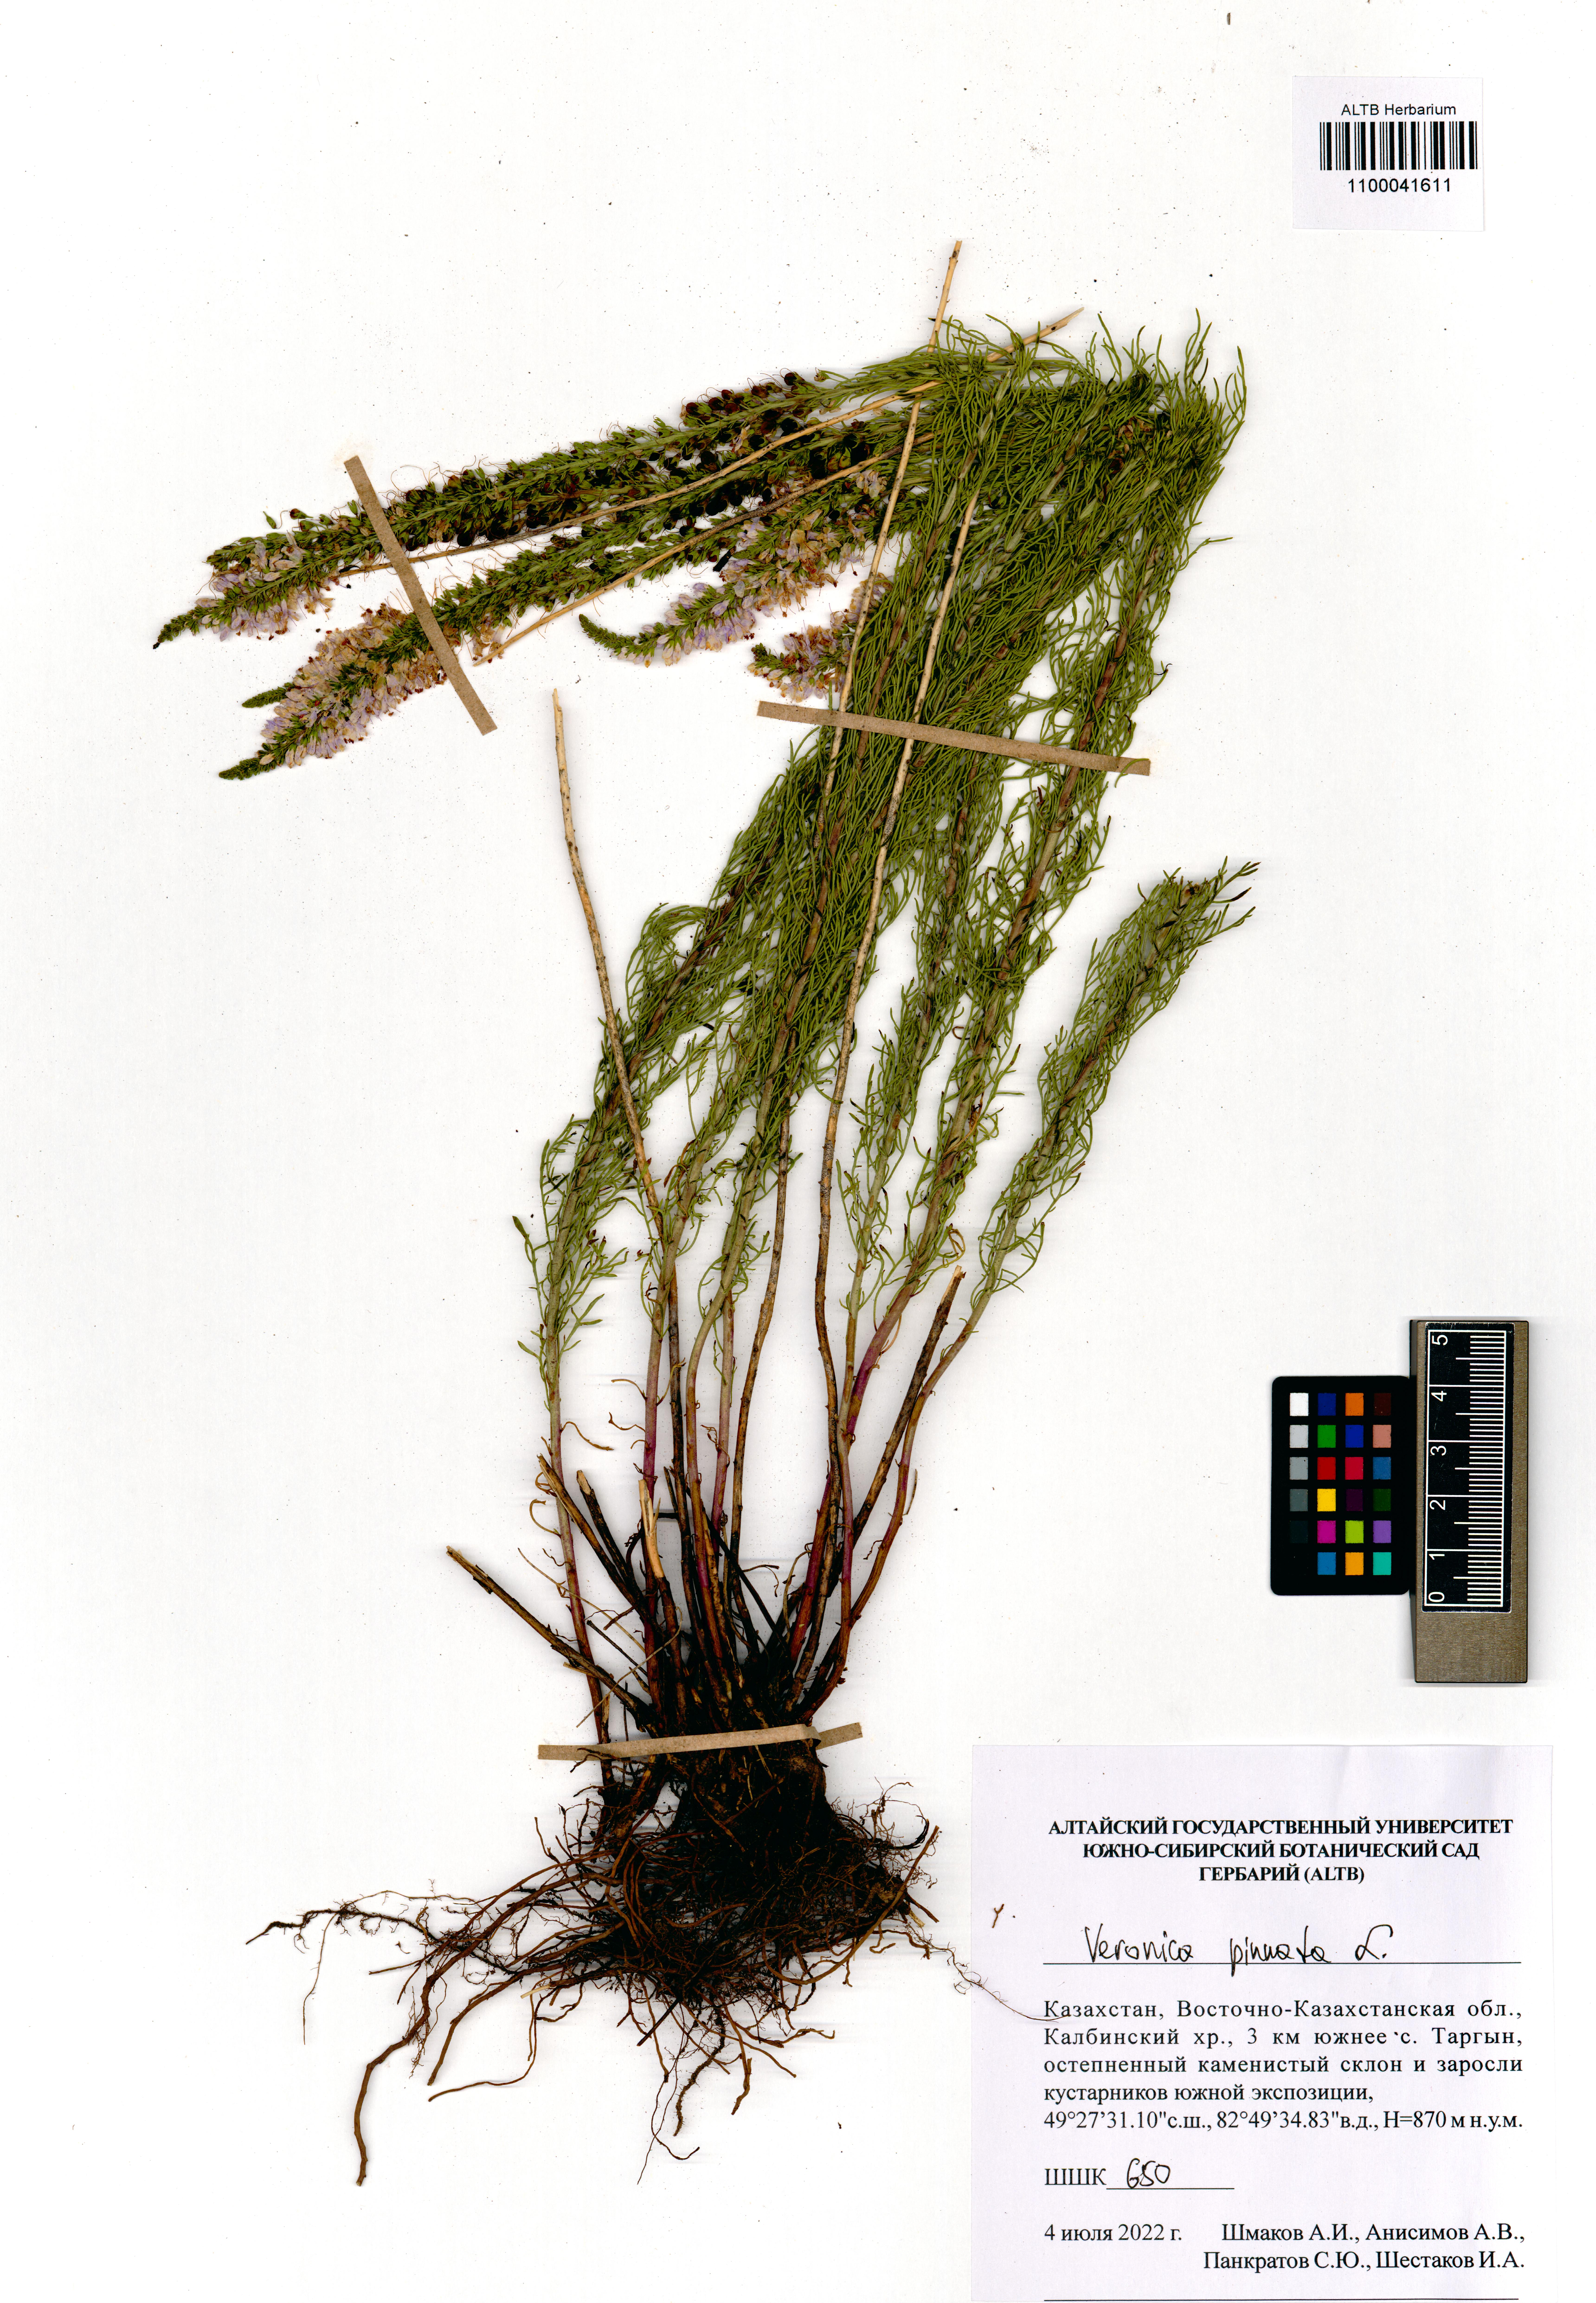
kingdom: Plantae
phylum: Tracheophyta
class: Magnoliopsida
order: Lamiales
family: Plantaginaceae
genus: Veronica
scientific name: Veronica pinnata
